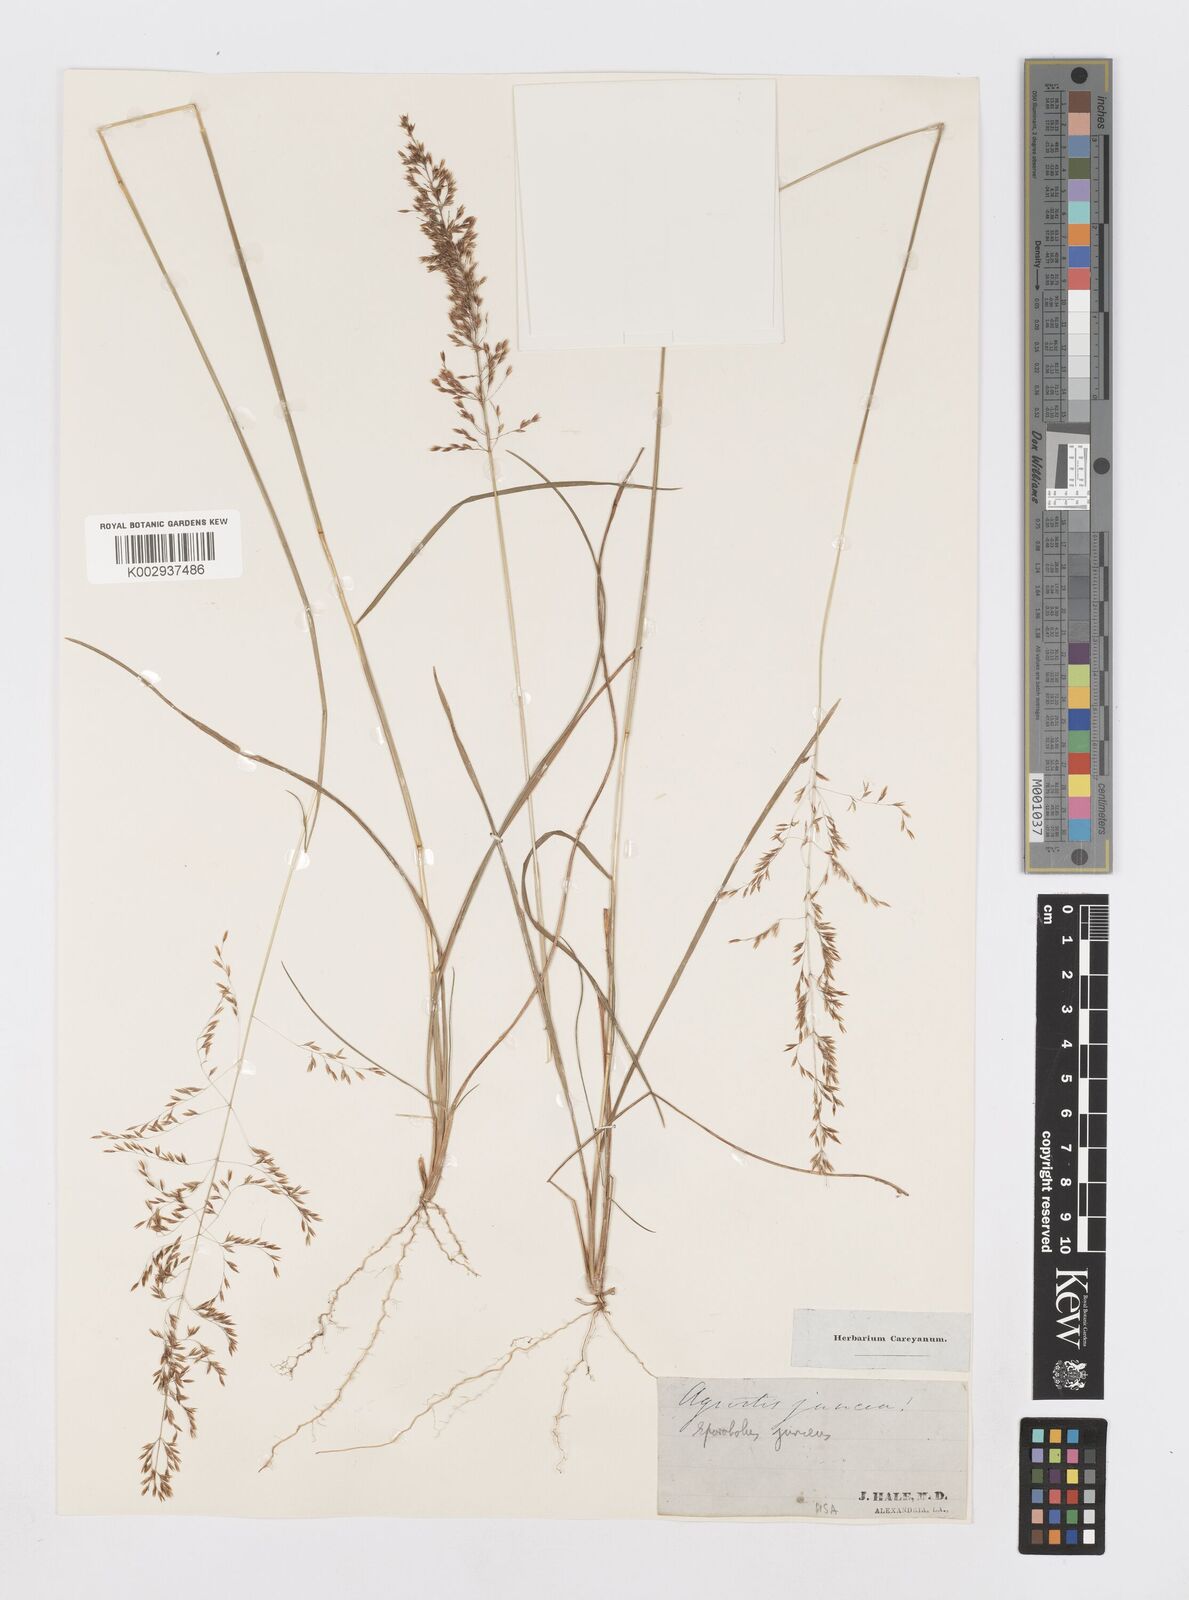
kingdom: Plantae
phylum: Tracheophyta
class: Liliopsida
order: Poales
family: Poaceae
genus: Sporobolus
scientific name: Sporobolus junceus
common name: Lizard grass
